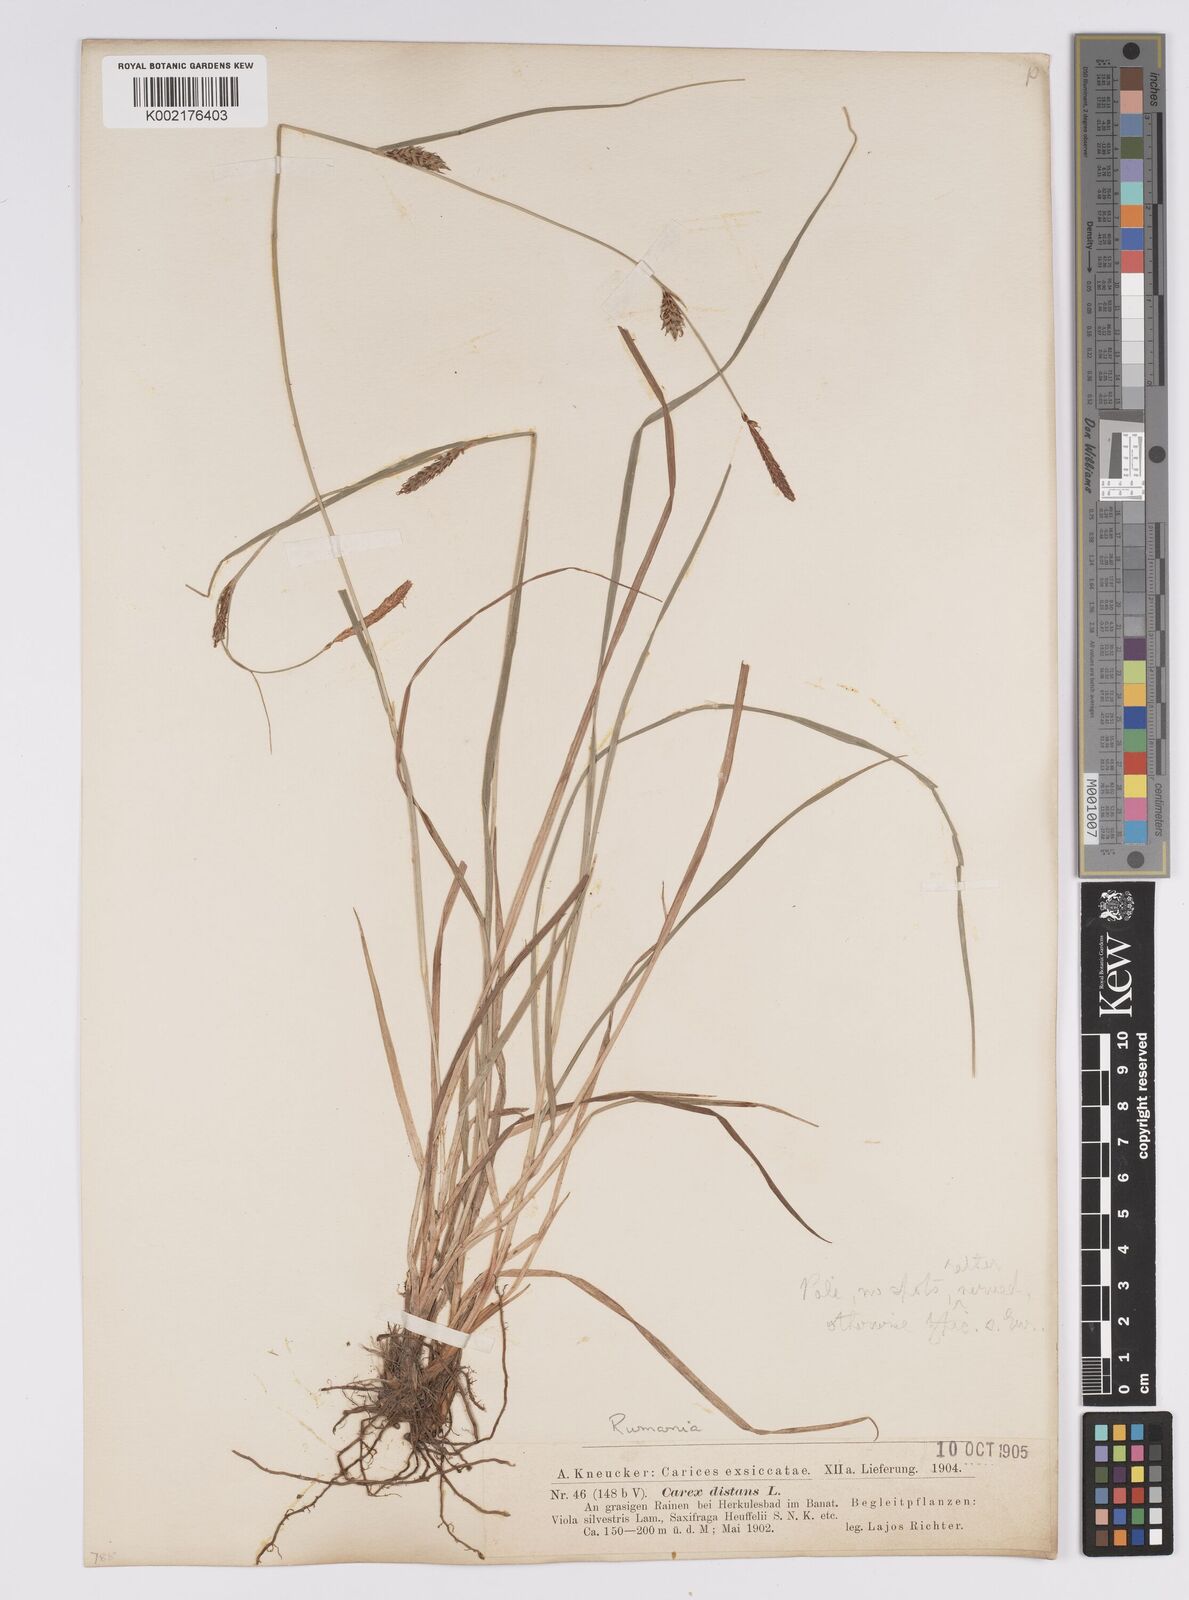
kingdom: Plantae
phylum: Tracheophyta
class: Liliopsida
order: Poales
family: Cyperaceae
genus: Carex
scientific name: Carex distans
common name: Distant sedge
